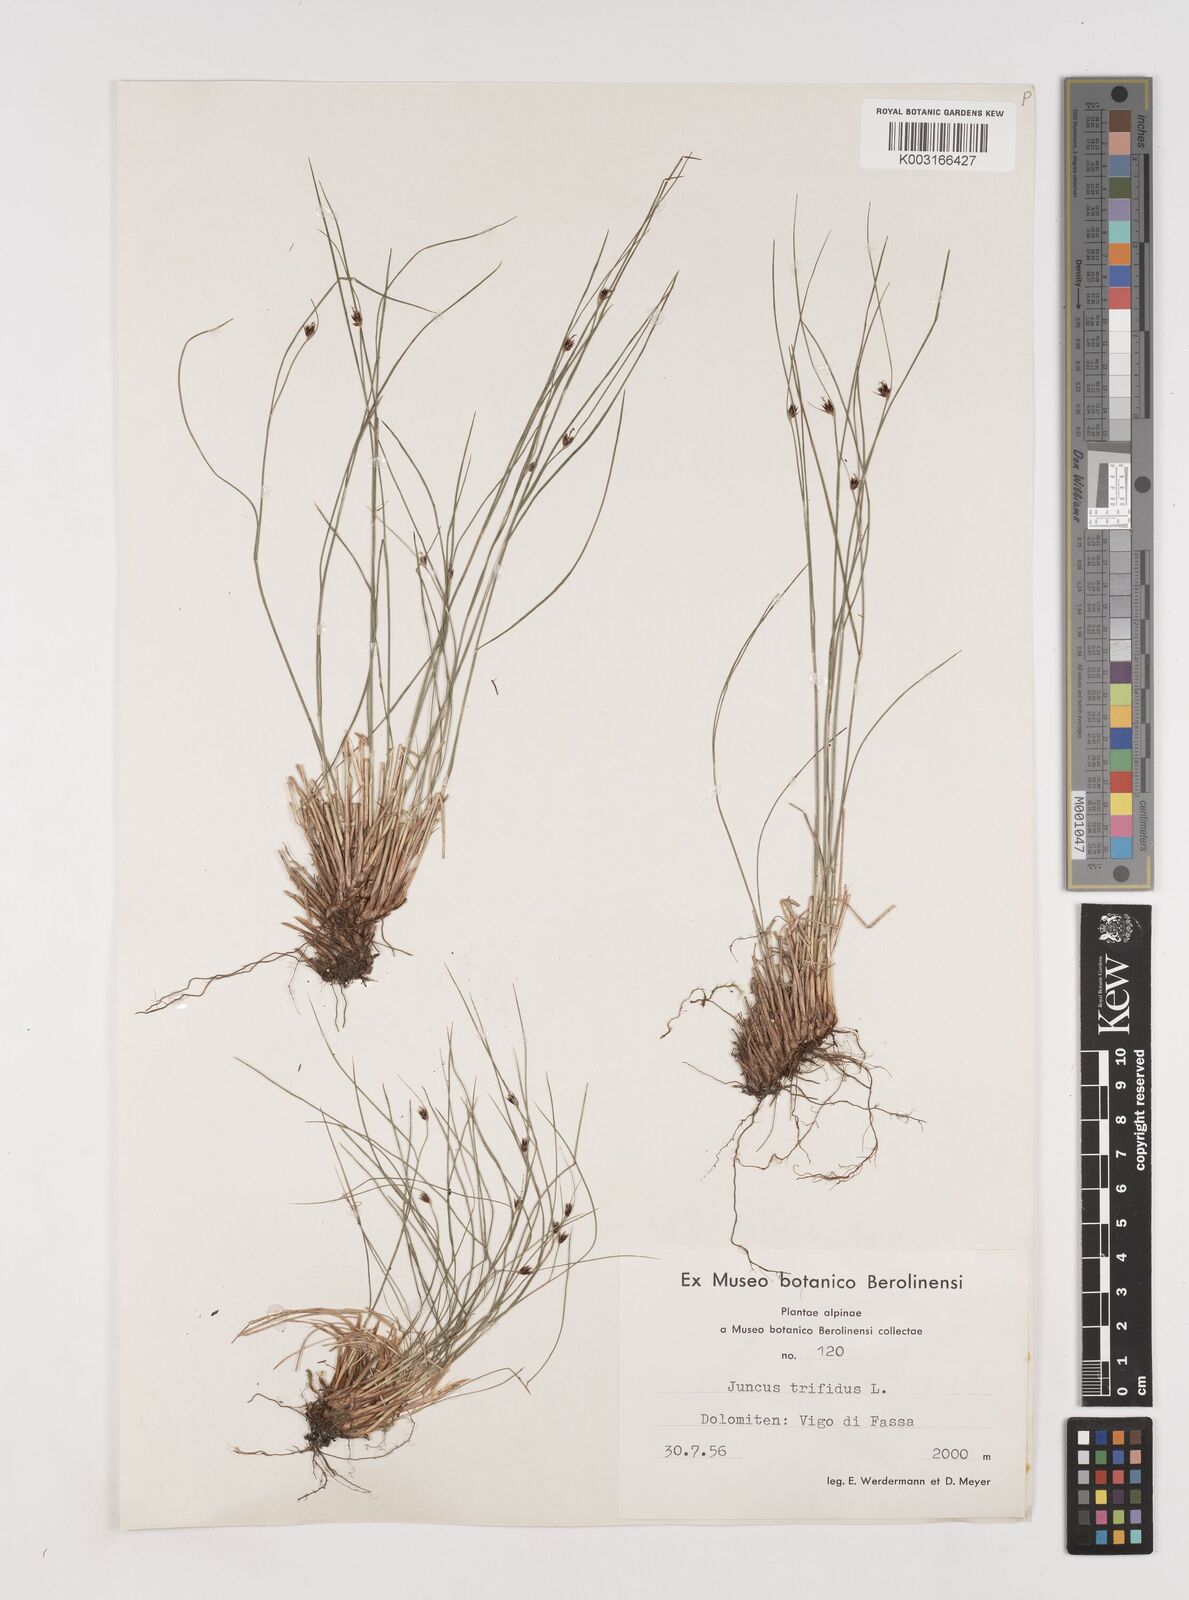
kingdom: Plantae
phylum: Tracheophyta
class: Liliopsida
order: Poales
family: Juncaceae
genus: Oreojuncus
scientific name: Oreojuncus trifidus
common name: Highland rush
